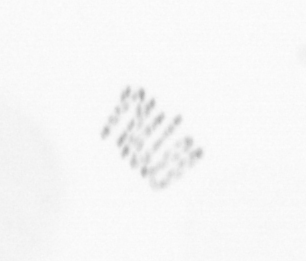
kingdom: Chromista
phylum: Ochrophyta
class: Bacillariophyceae
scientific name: Bacillariophyceae
